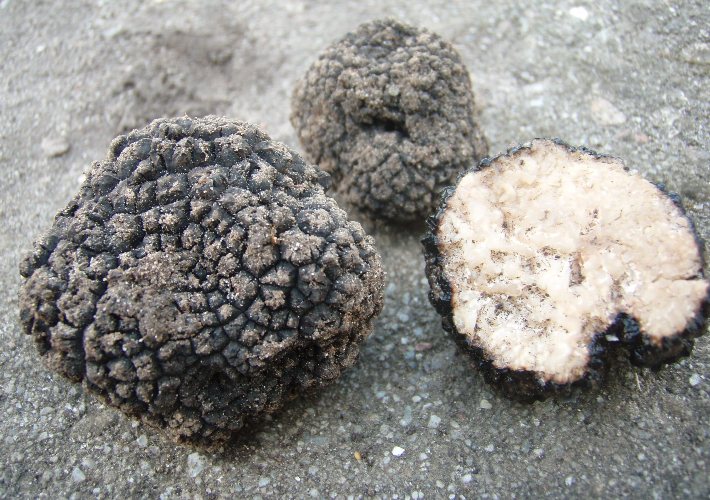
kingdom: Fungi
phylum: Ascomycota
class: Pezizomycetes
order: Pezizales
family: Tuberaceae
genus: Tuber
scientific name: Tuber aestivum
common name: sommer-trøffel
